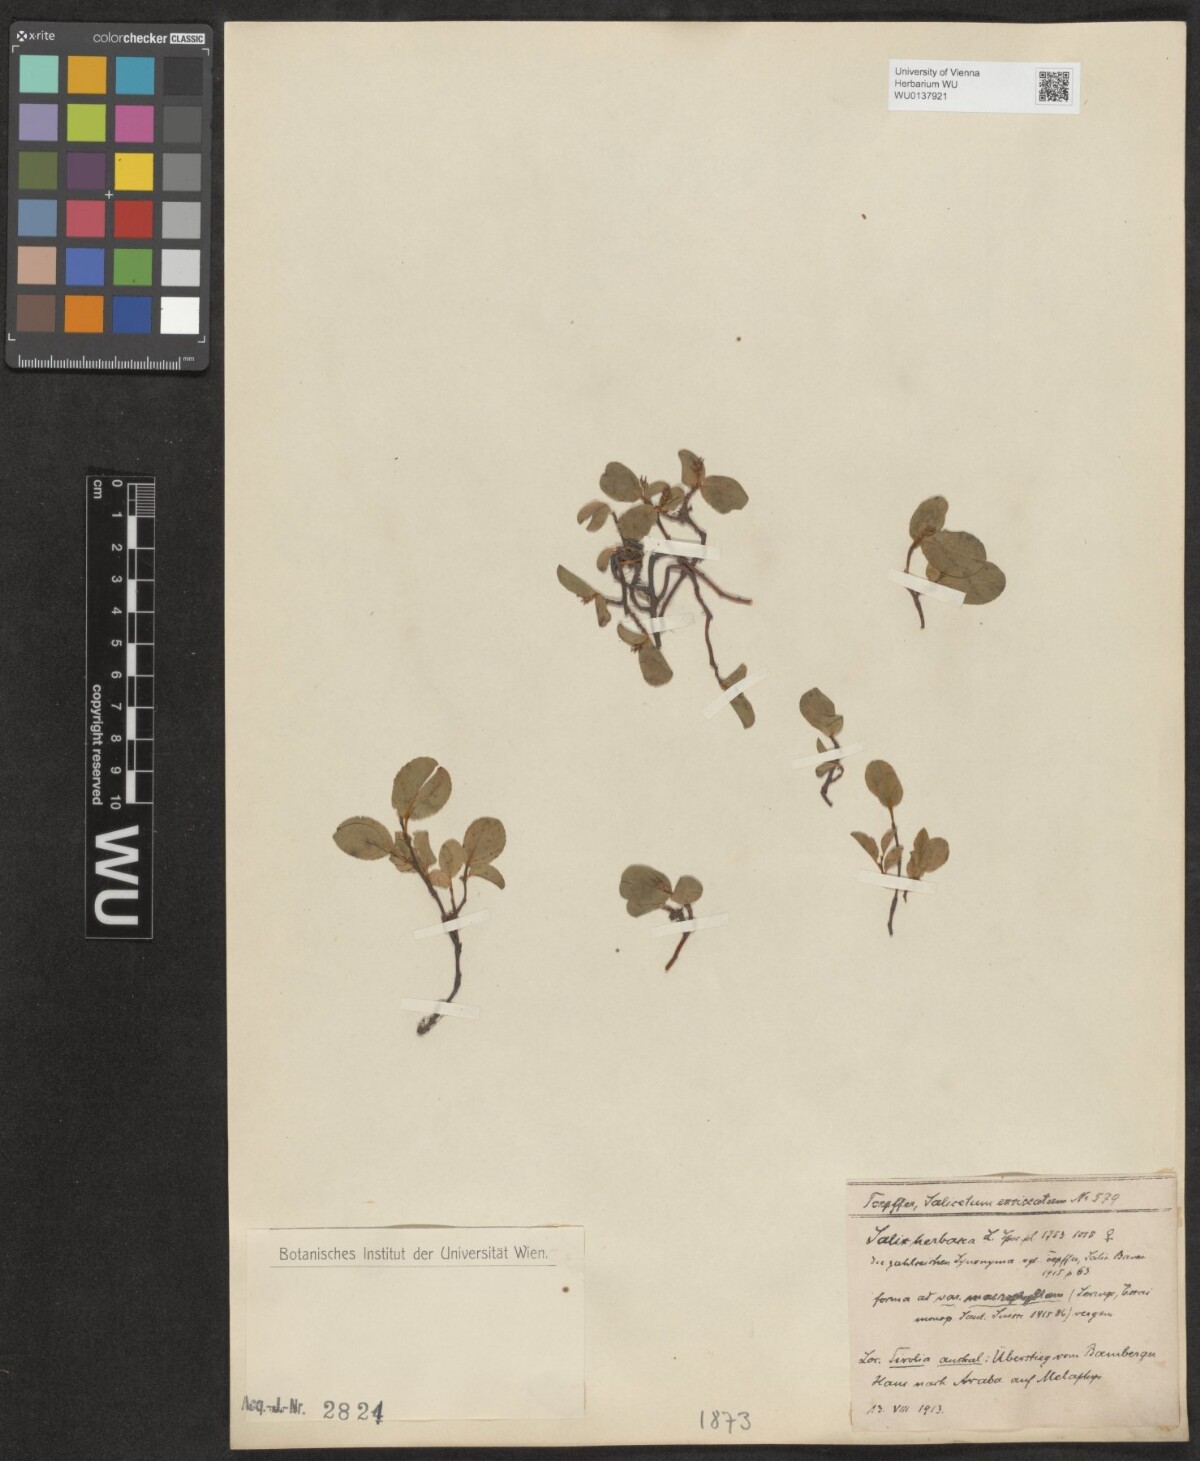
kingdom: Plantae
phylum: Tracheophyta
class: Magnoliopsida
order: Malpighiales
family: Salicaceae
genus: Salix
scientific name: Salix herbacea
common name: Dwarf willow
